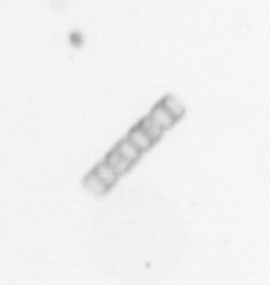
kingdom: Chromista
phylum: Ochrophyta
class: Bacillariophyceae
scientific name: Bacillariophyceae
